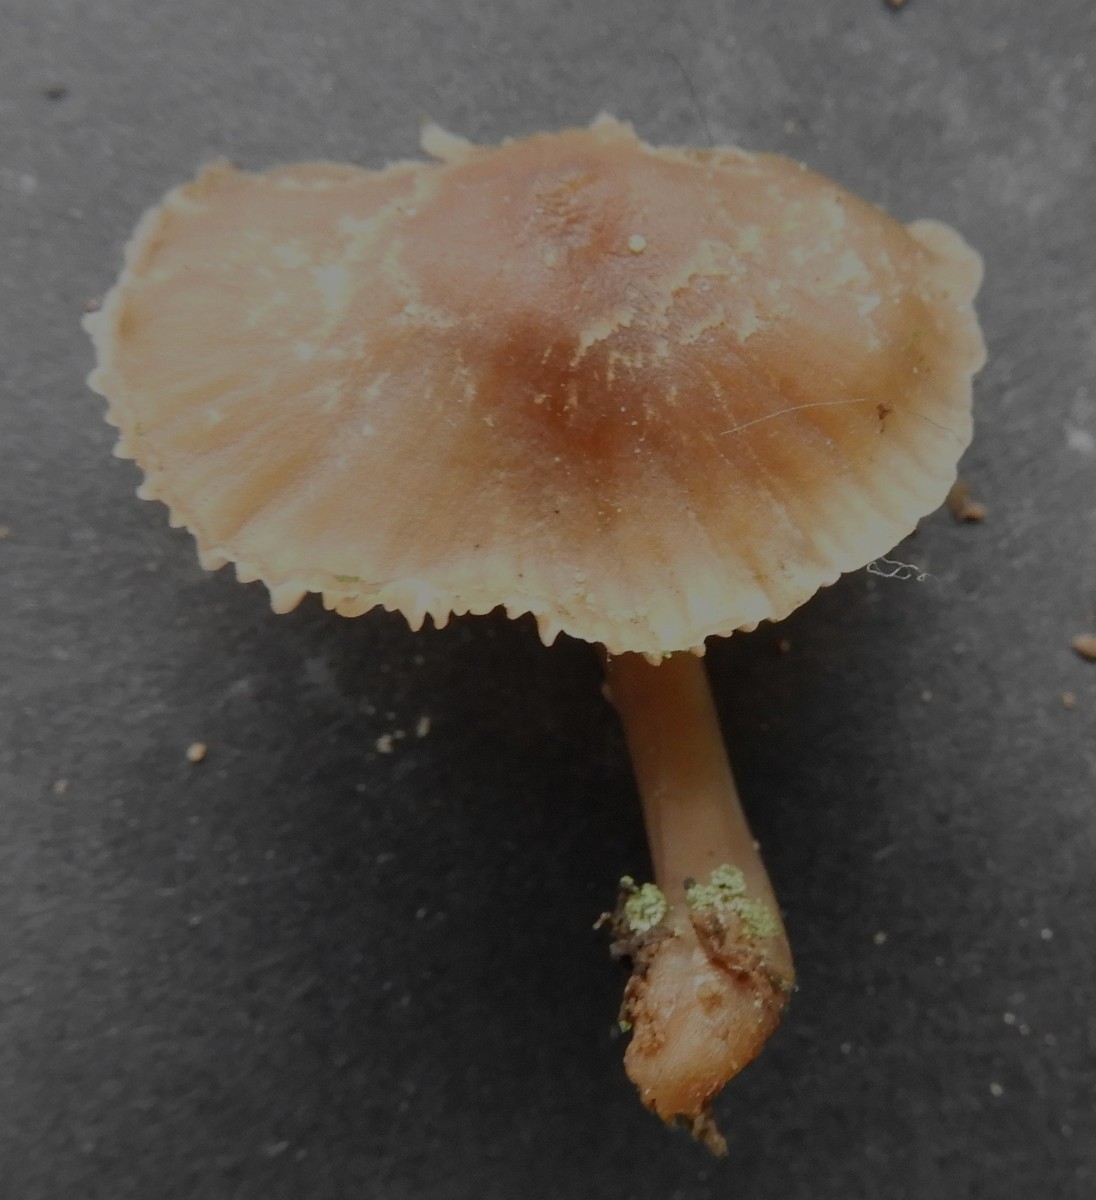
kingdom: Fungi
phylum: Basidiomycota
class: Agaricomycetes
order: Agaricales
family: Mycenaceae
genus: Mycena
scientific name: Mycena
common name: huesvamp
